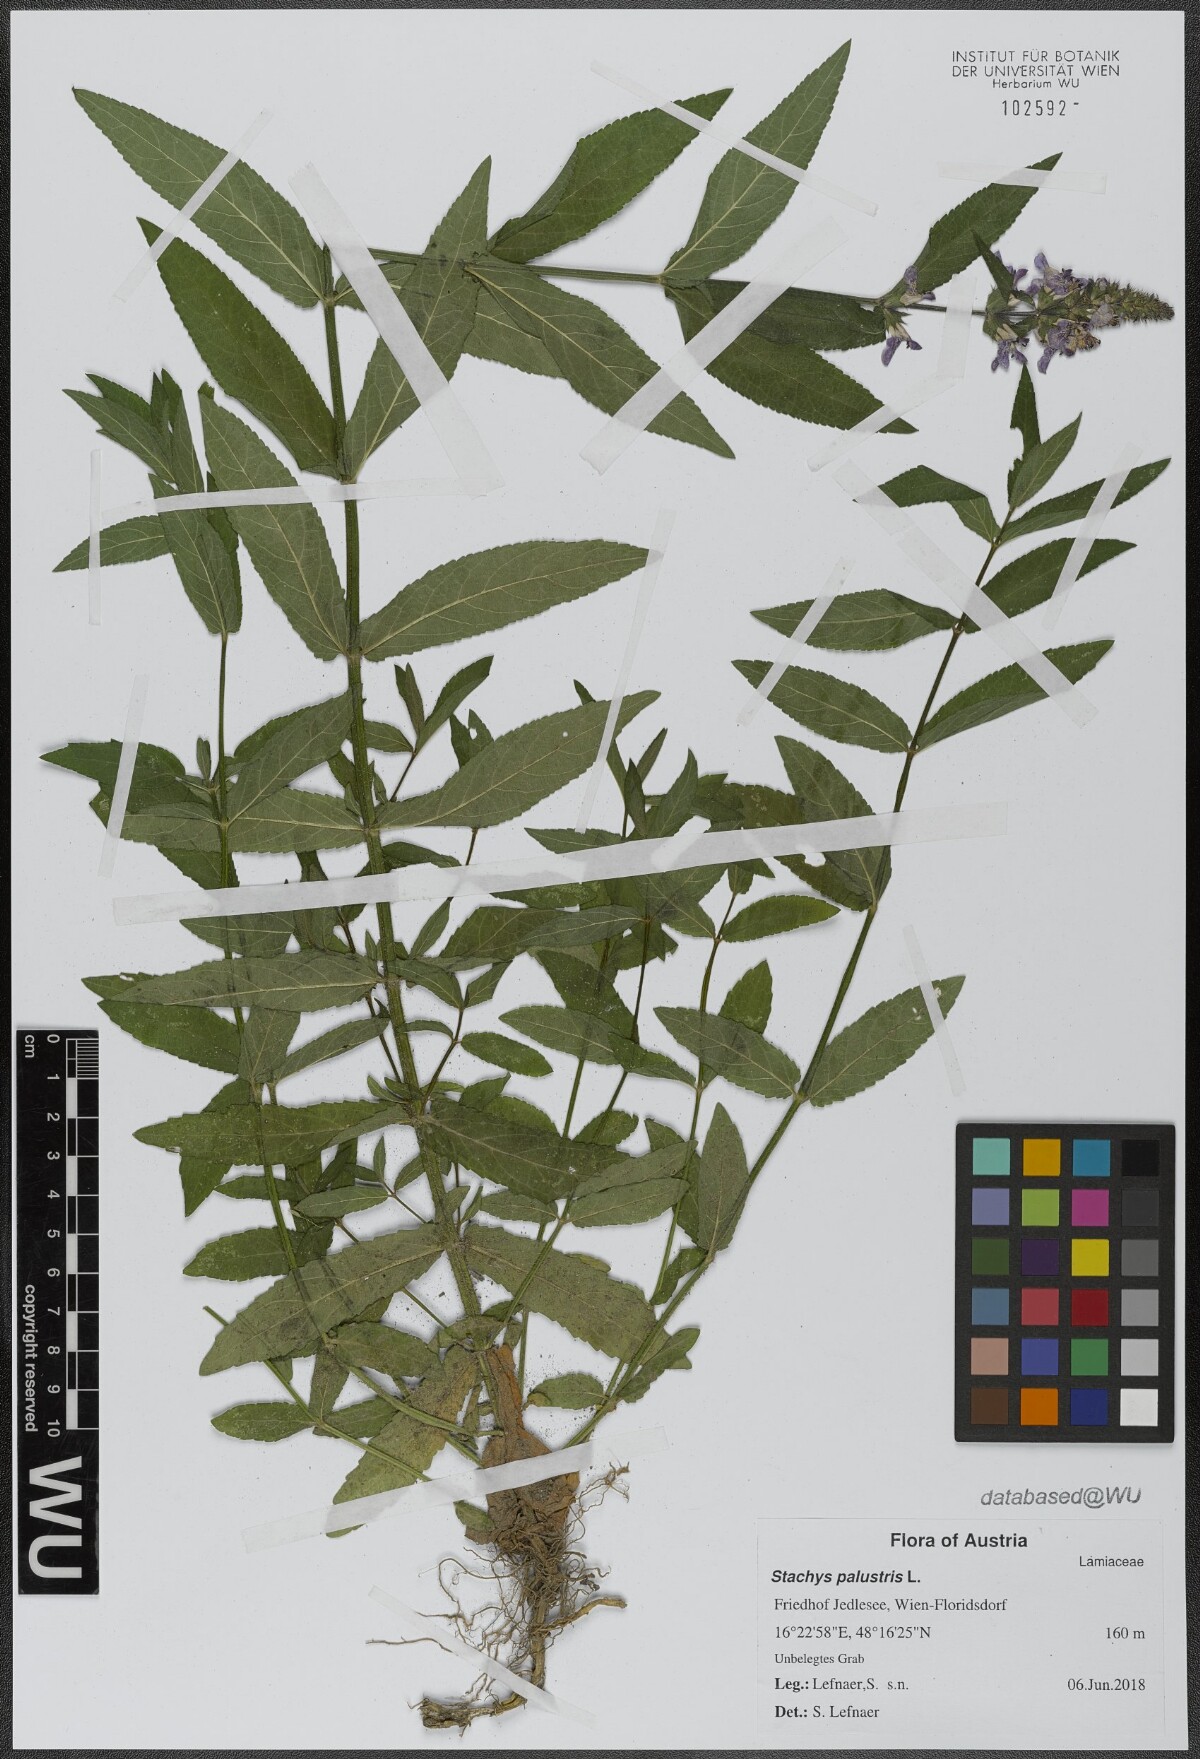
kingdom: Plantae
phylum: Tracheophyta
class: Magnoliopsida
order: Lamiales
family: Lamiaceae
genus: Stachys
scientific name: Stachys palustris
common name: Marsh woundwort
